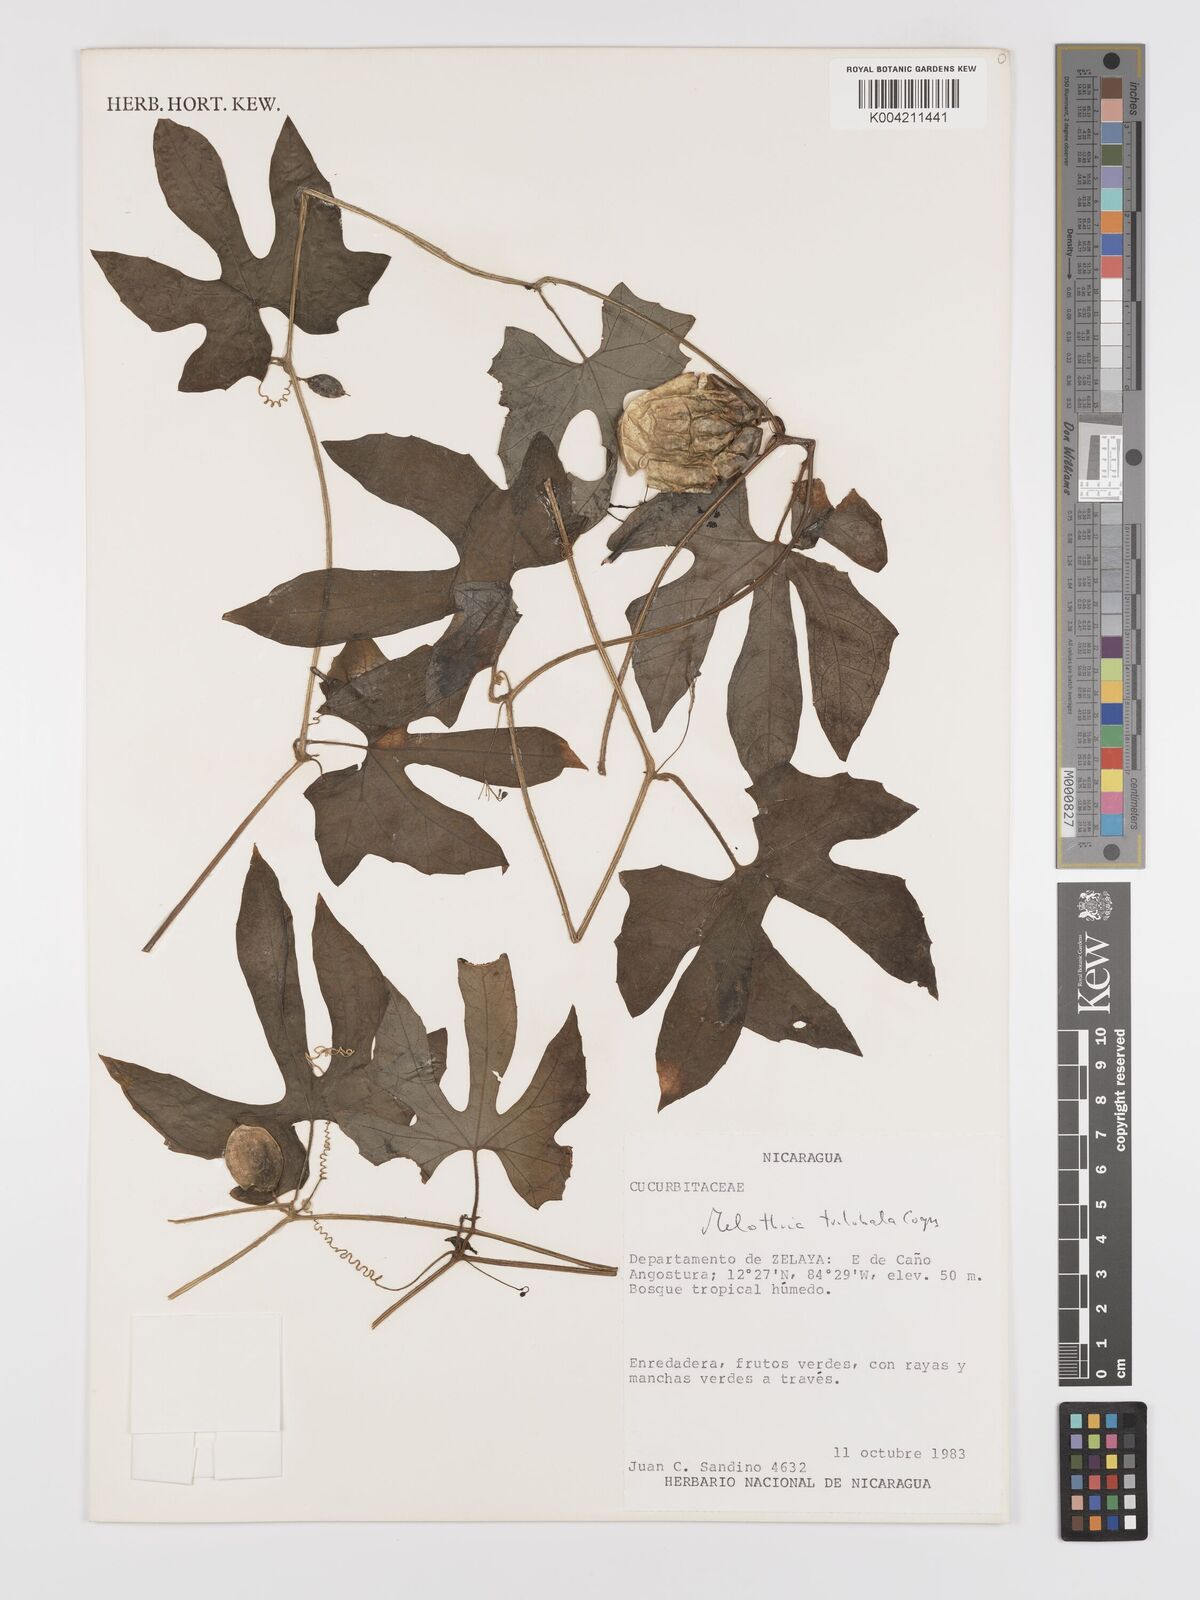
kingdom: Plantae
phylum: Tracheophyta
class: Magnoliopsida
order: Cucurbitales
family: Cucurbitaceae
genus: Melothria
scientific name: Melothria trilobata
